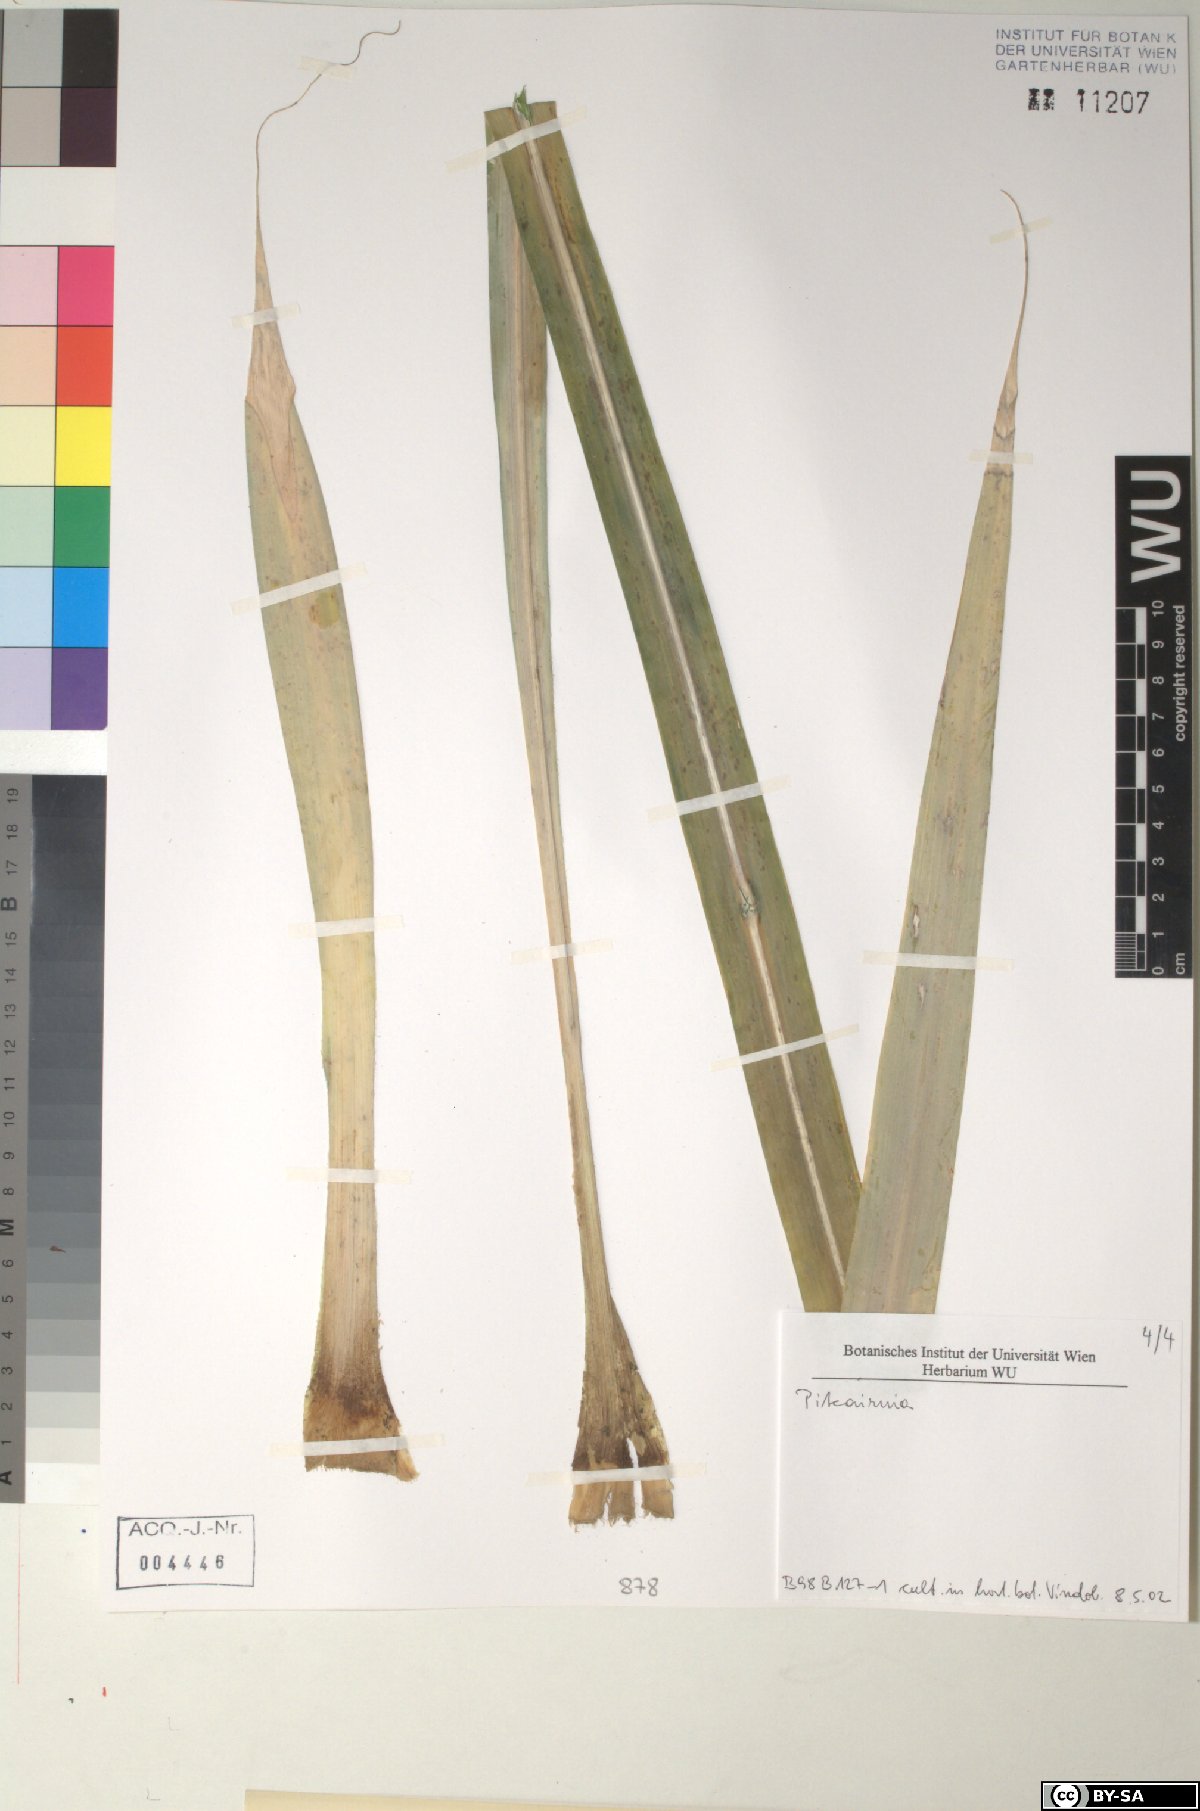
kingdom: Plantae
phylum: Tracheophyta
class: Liliopsida
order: Poales
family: Bromeliaceae
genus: Pitcairnia
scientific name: Pitcairnia
